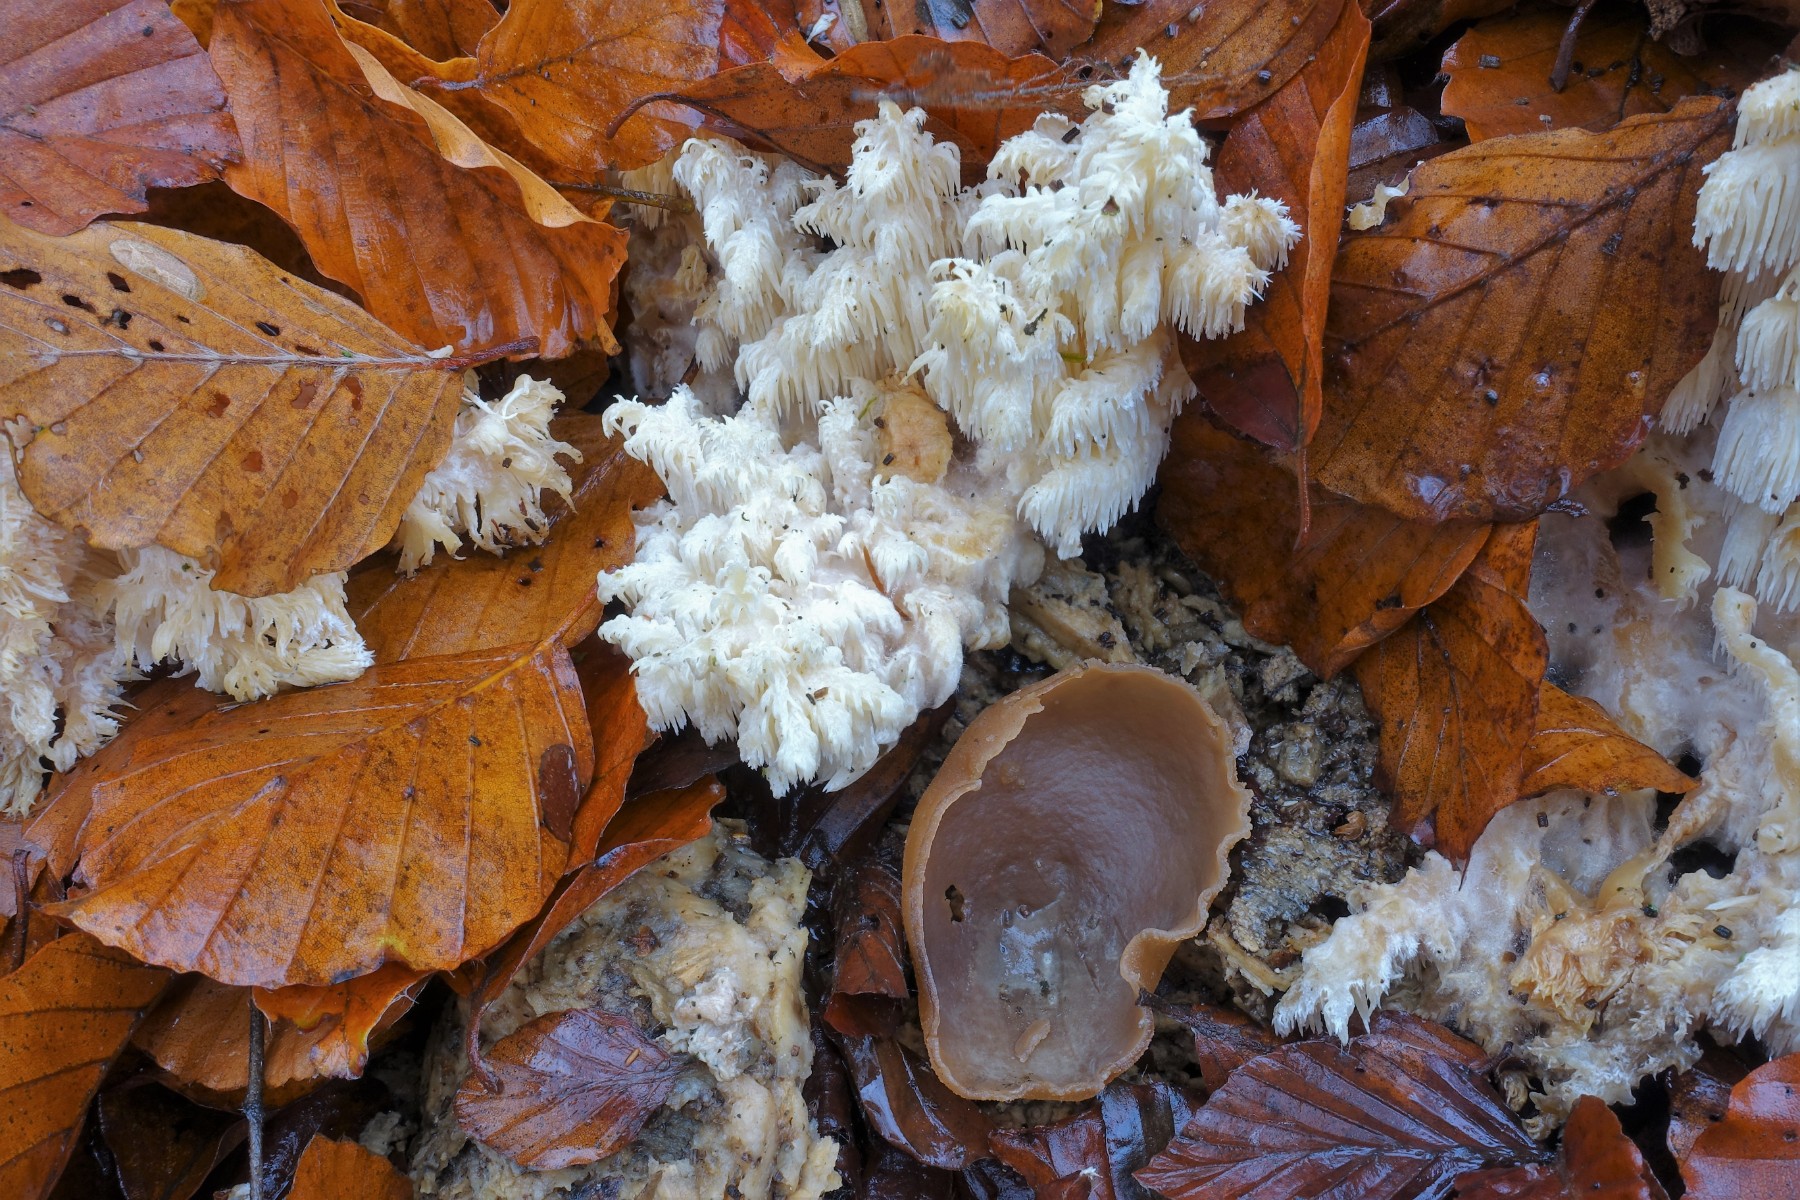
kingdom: Fungi
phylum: Ascomycota
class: Pezizomycetes
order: Pezizales
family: Pezizaceae
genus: Peziza
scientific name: Peziza varia
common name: Ved-bægersvamp
